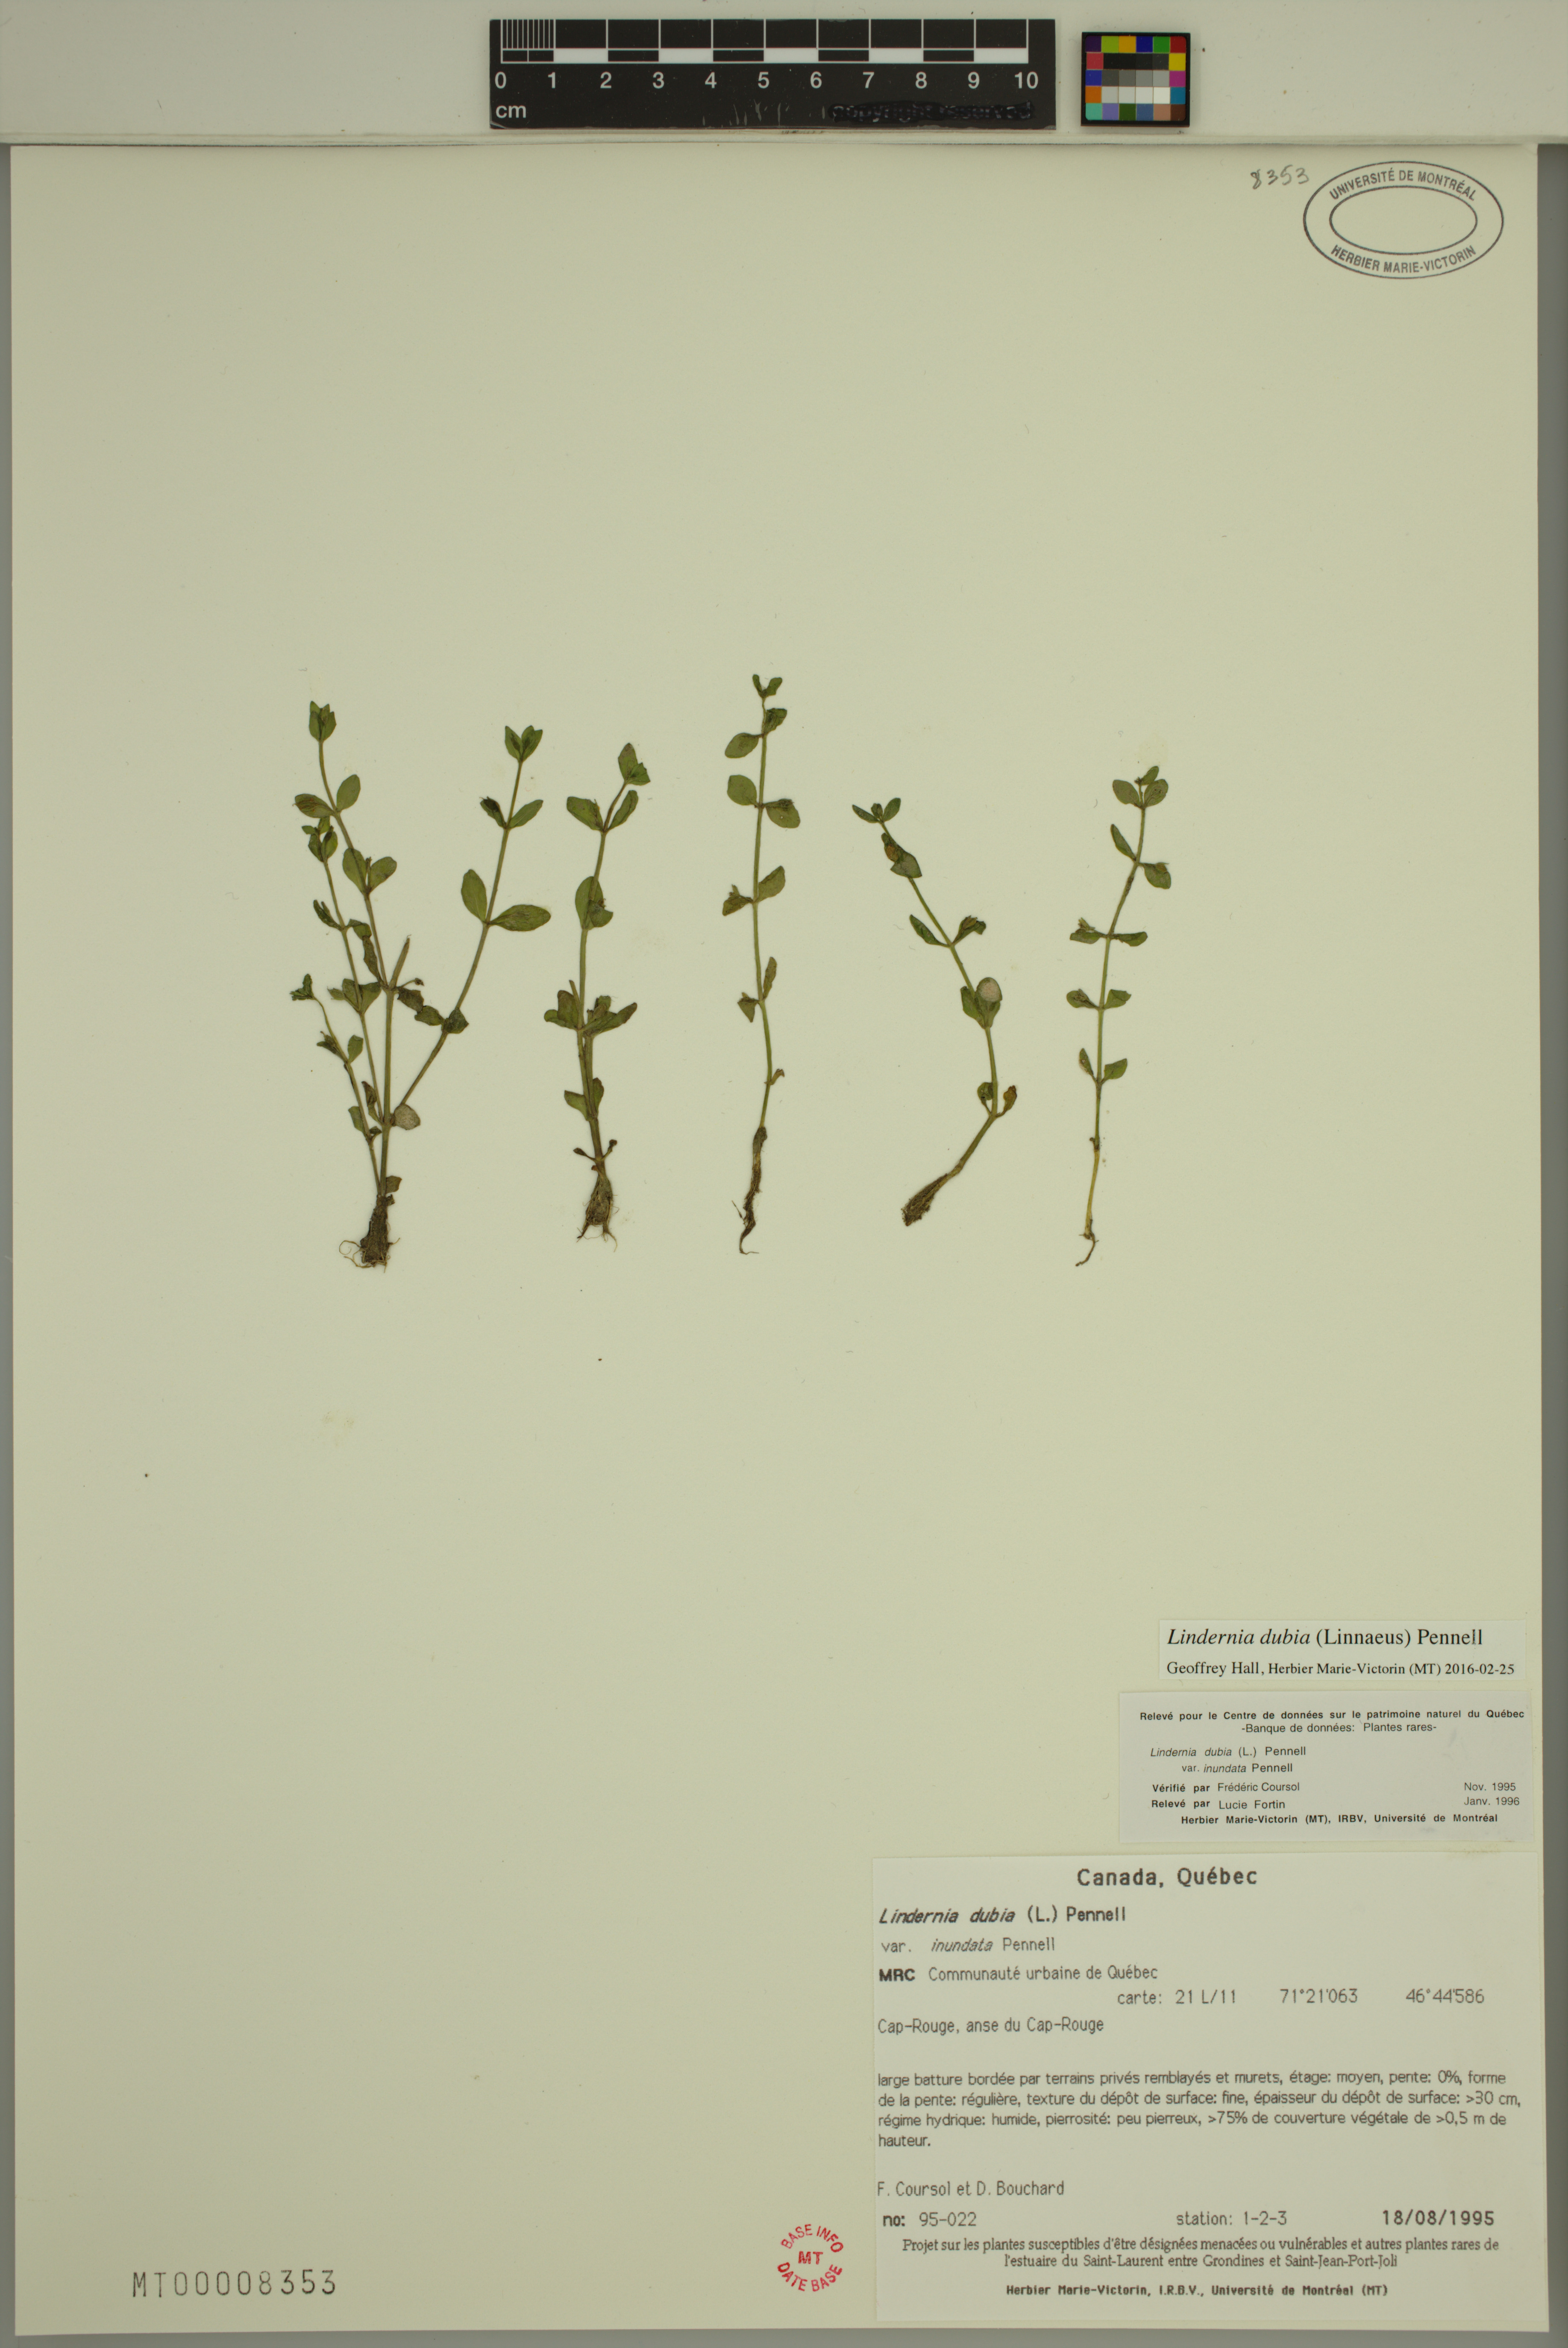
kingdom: Plantae
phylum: Tracheophyta
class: Magnoliopsida
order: Lamiales
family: Linderniaceae
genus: Lindernia
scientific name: Lindernia dubia
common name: Annual false pimpernel
